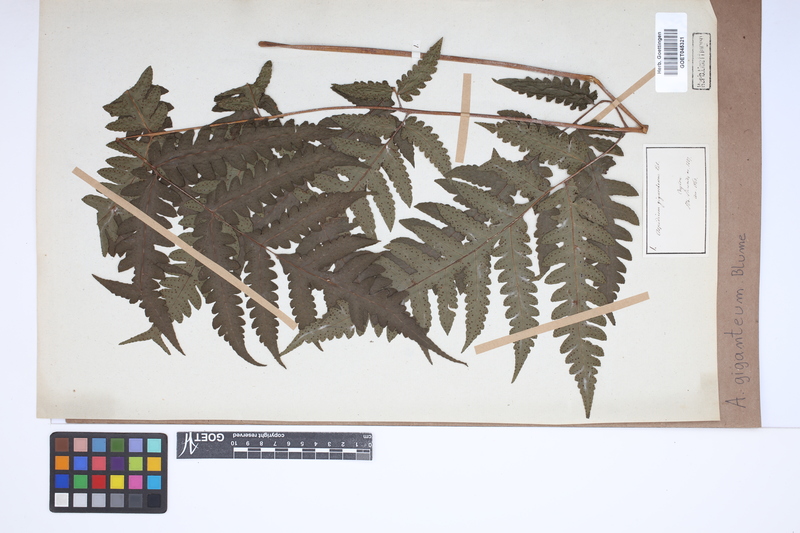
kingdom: Plantae
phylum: Tracheophyta
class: Polypodiopsida
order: Polypodiales
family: Tectariaceae
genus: Tectaria
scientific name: Tectaria gigantea
